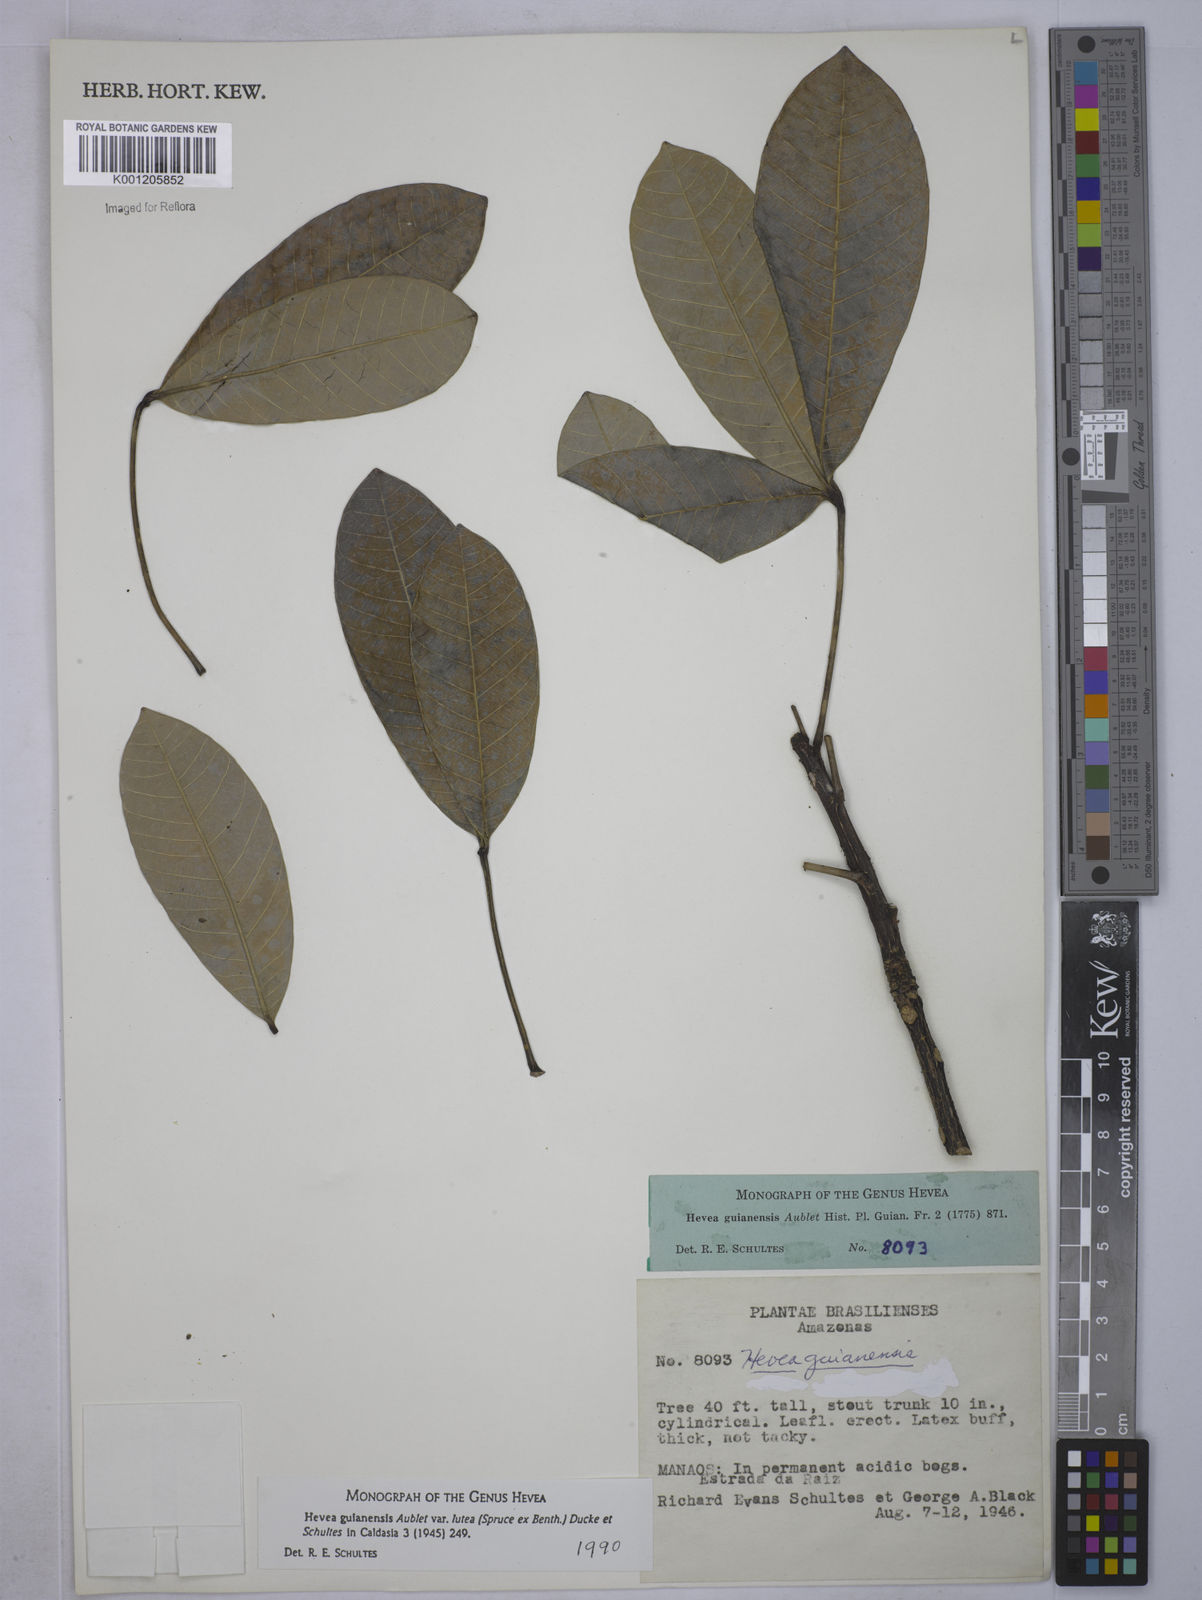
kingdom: Plantae
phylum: Tracheophyta
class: Magnoliopsida
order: Malpighiales
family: Euphorbiaceae
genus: Hevea
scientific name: Hevea guianensis
